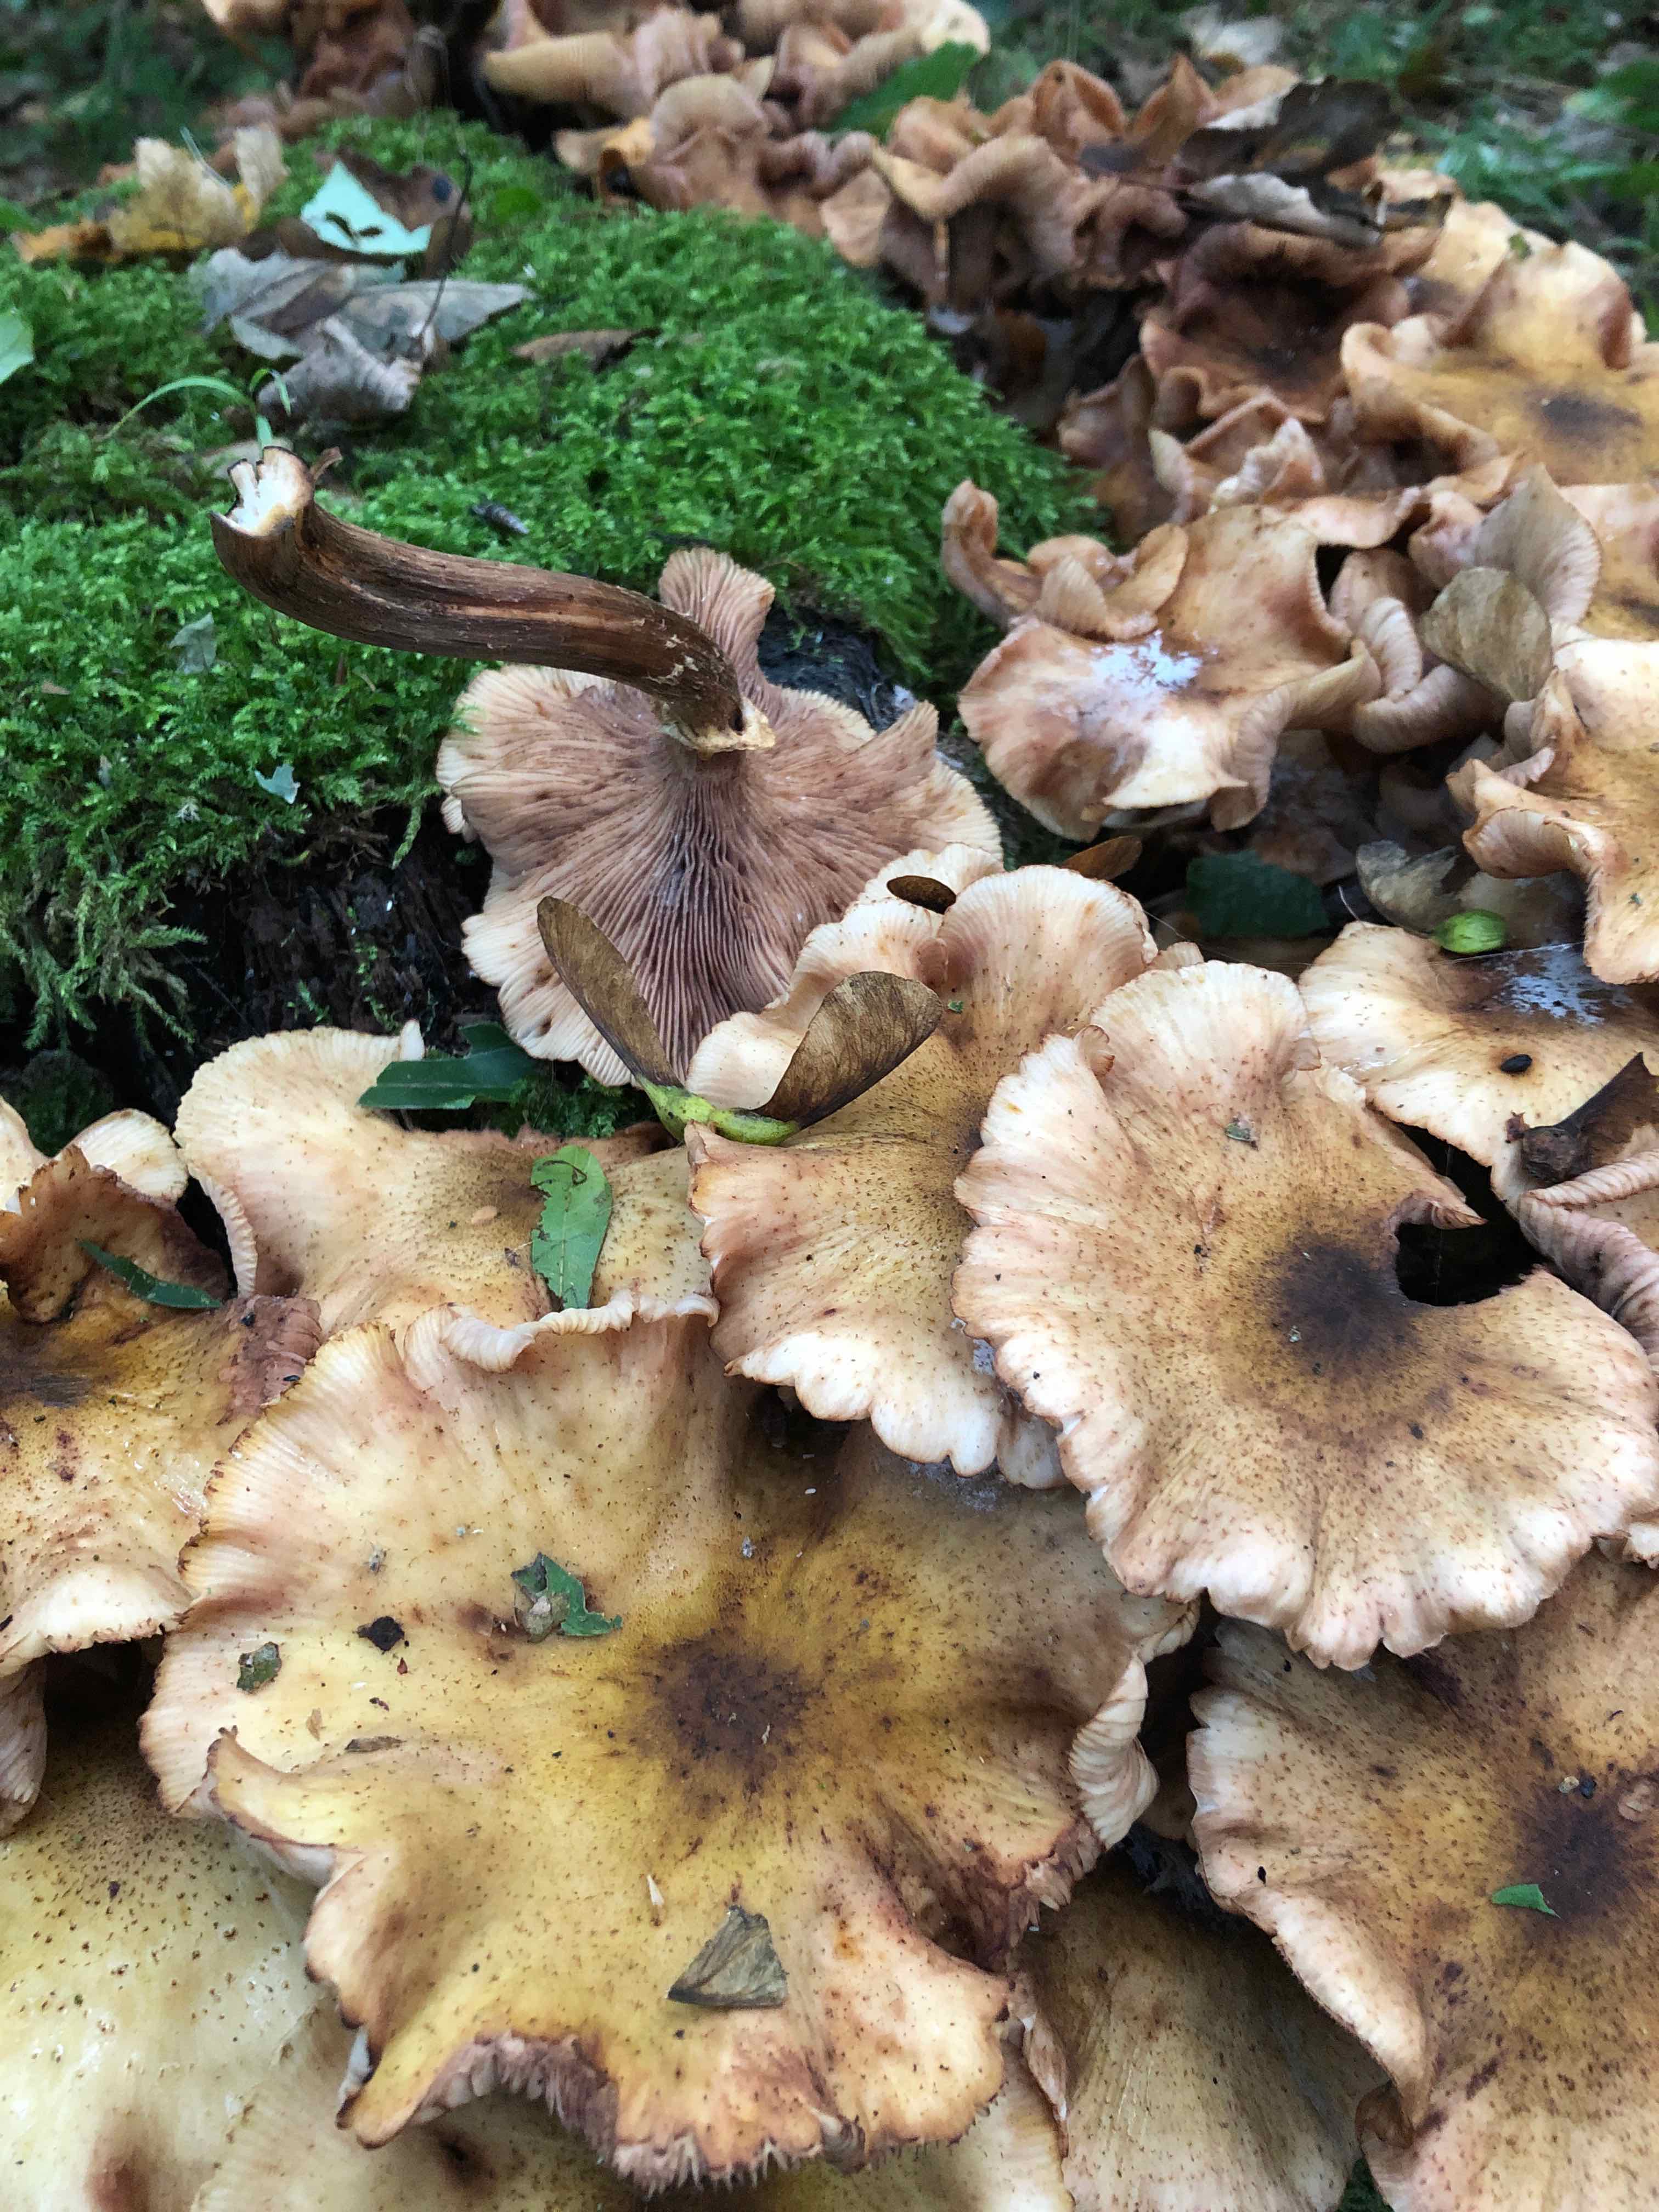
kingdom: Fungi
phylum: Basidiomycota
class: Agaricomycetes
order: Agaricales
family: Physalacriaceae
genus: Armillaria
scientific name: Armillaria mellea
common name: ægte honningsvamp
